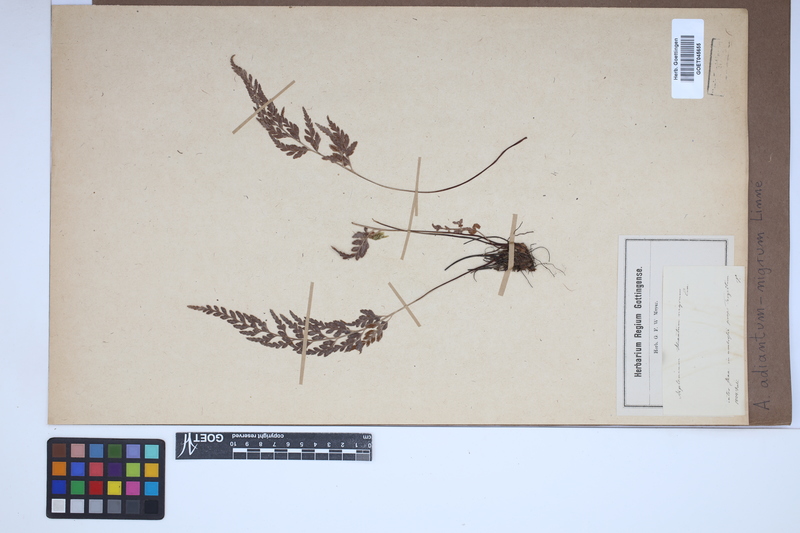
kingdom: Plantae
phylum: Tracheophyta
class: Polypodiopsida
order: Polypodiales
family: Aspleniaceae
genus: Asplenium
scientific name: Asplenium adiantum-nigrum
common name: Black spleenwort
